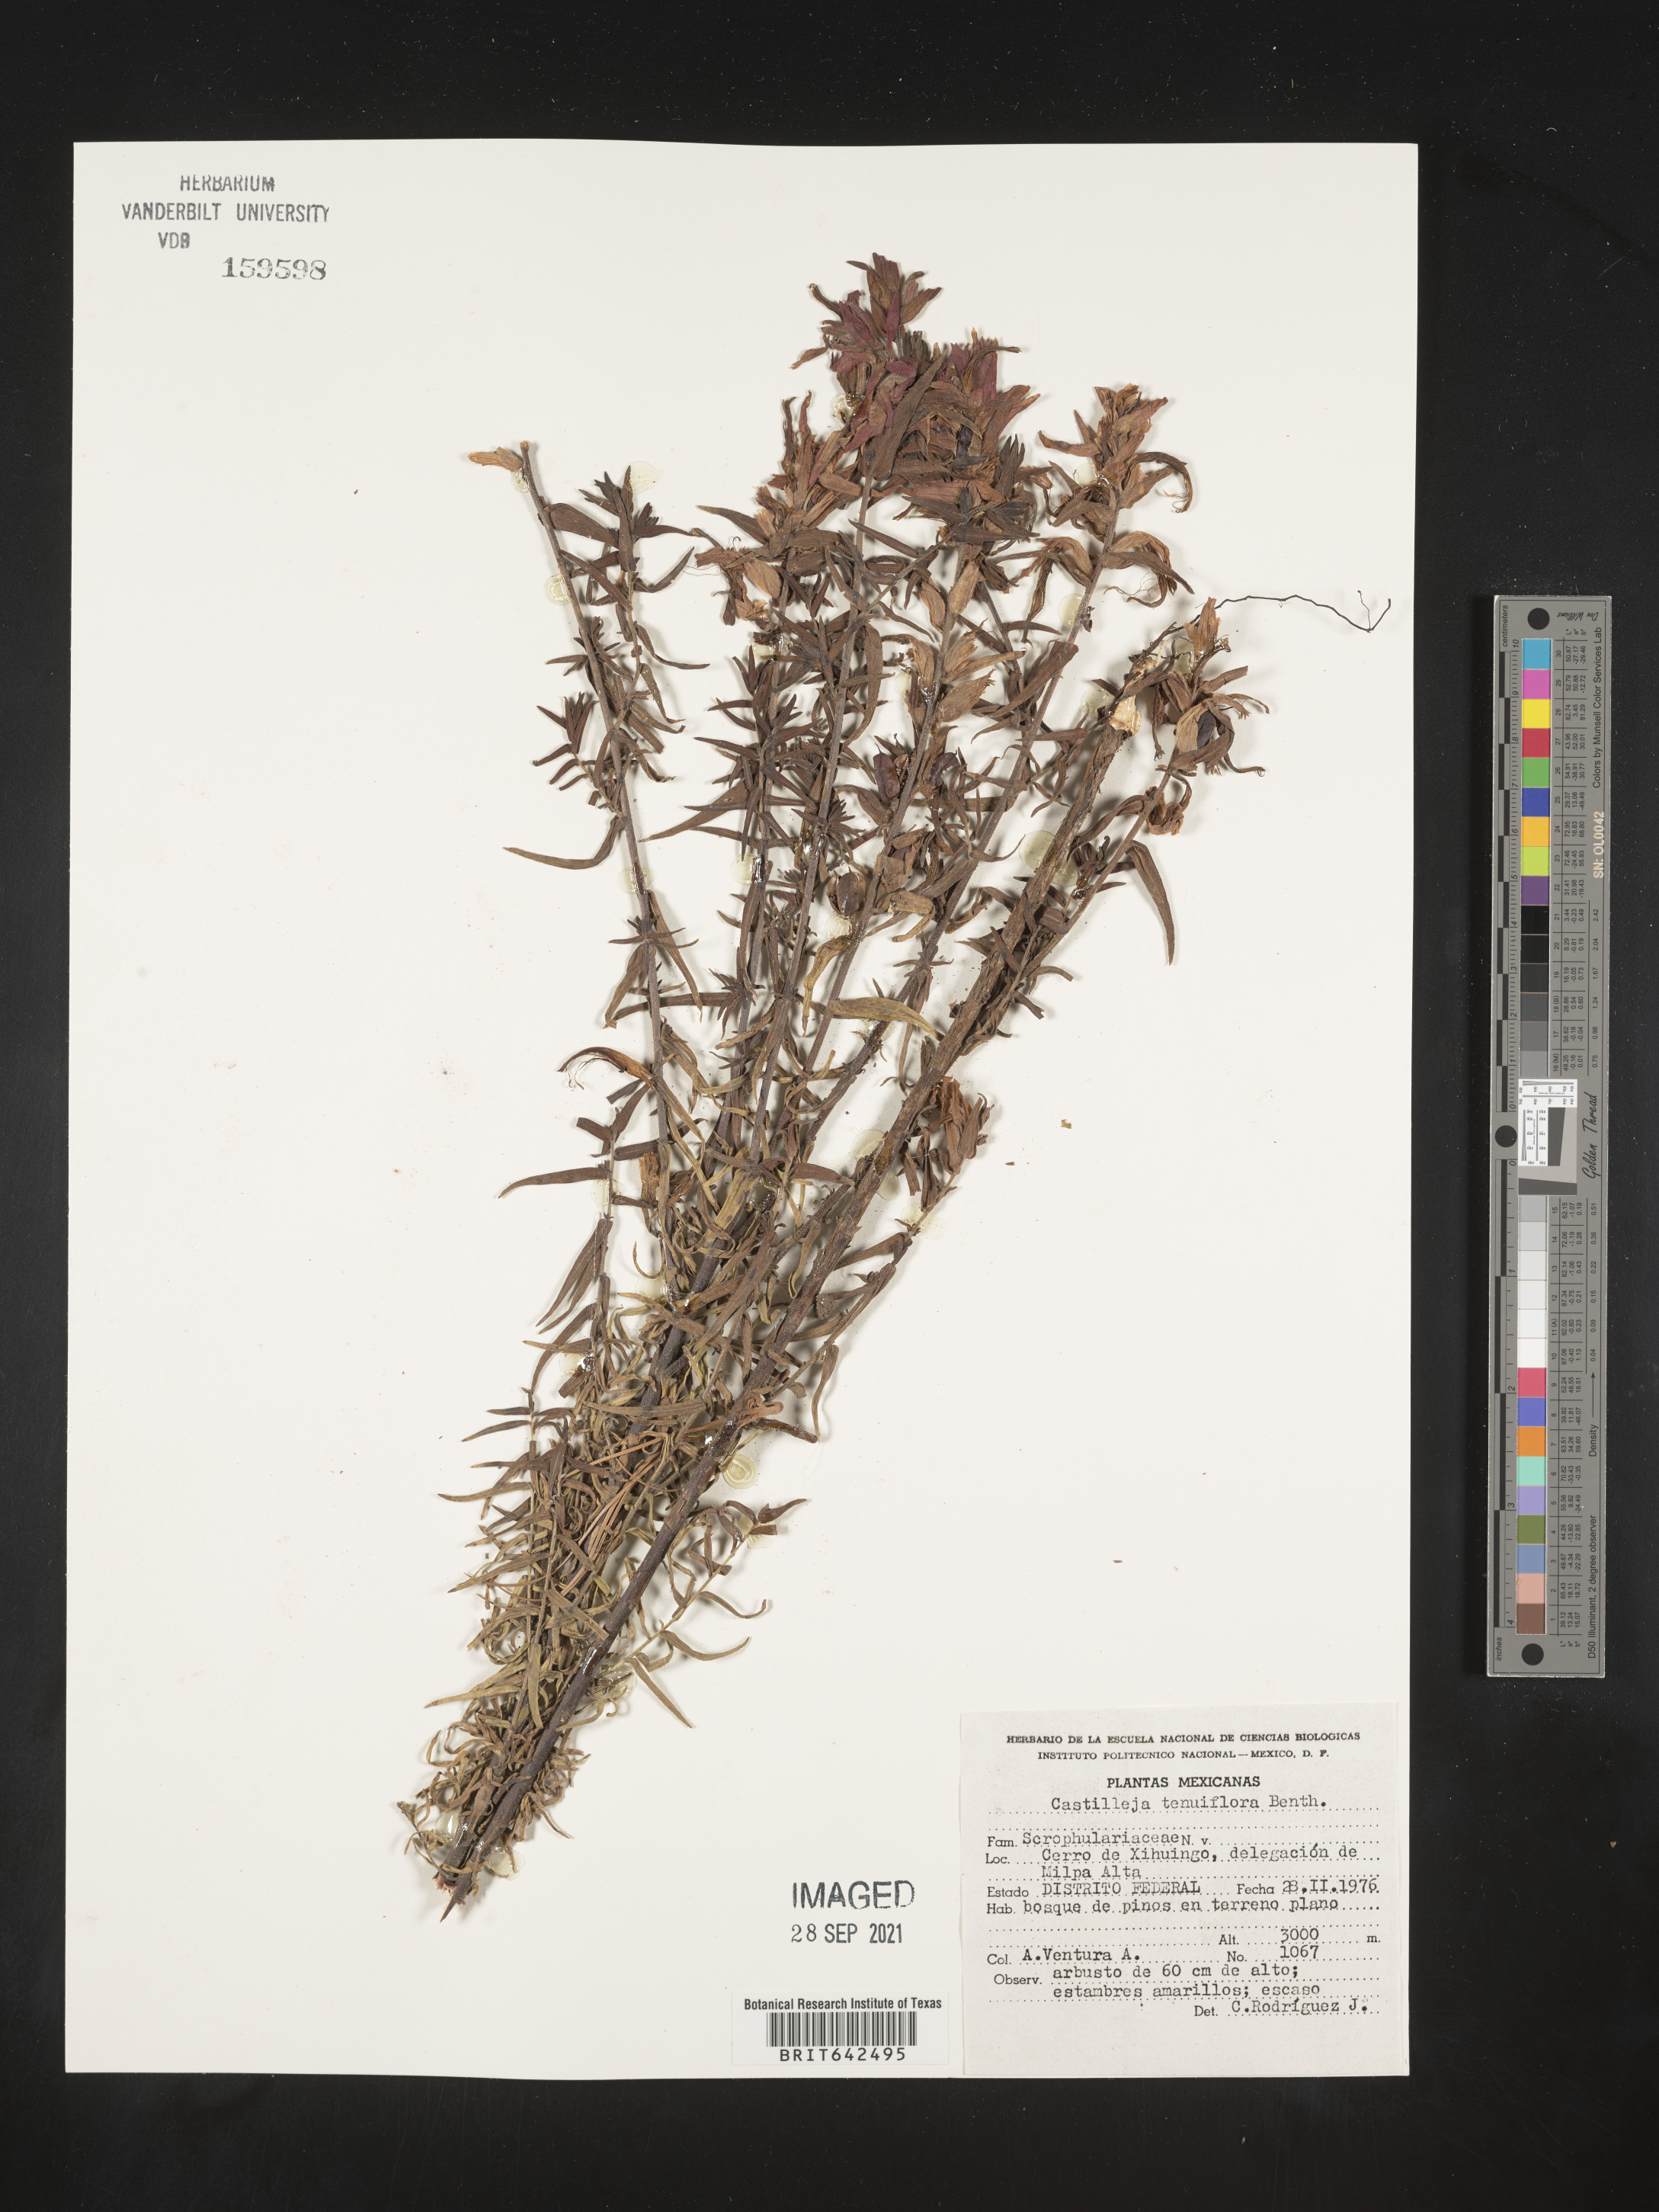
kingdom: Plantae
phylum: Tracheophyta
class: Magnoliopsida
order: Lamiales
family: Orobanchaceae
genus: Castilleja
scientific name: Castilleja
